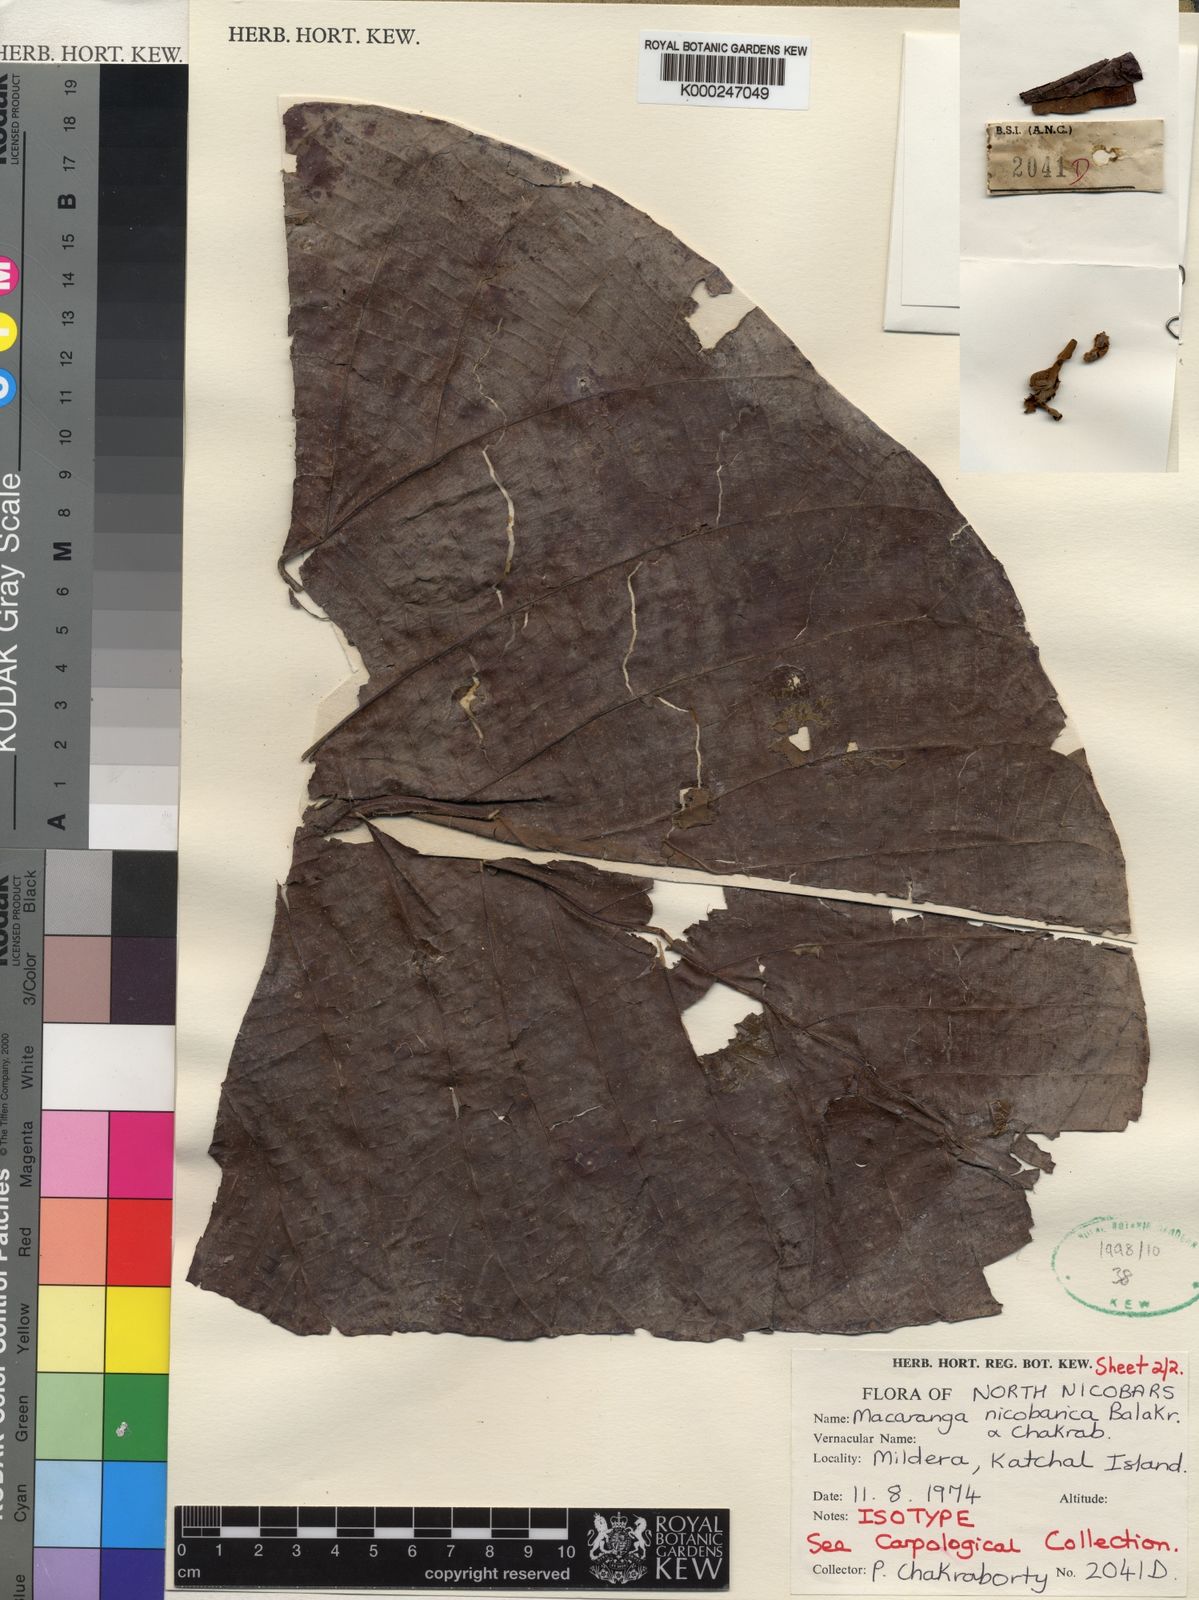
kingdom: Plantae
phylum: Tracheophyta
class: Magnoliopsida
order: Malpighiales
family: Euphorbiaceae
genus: Macaranga
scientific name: Macaranga nicobarica
